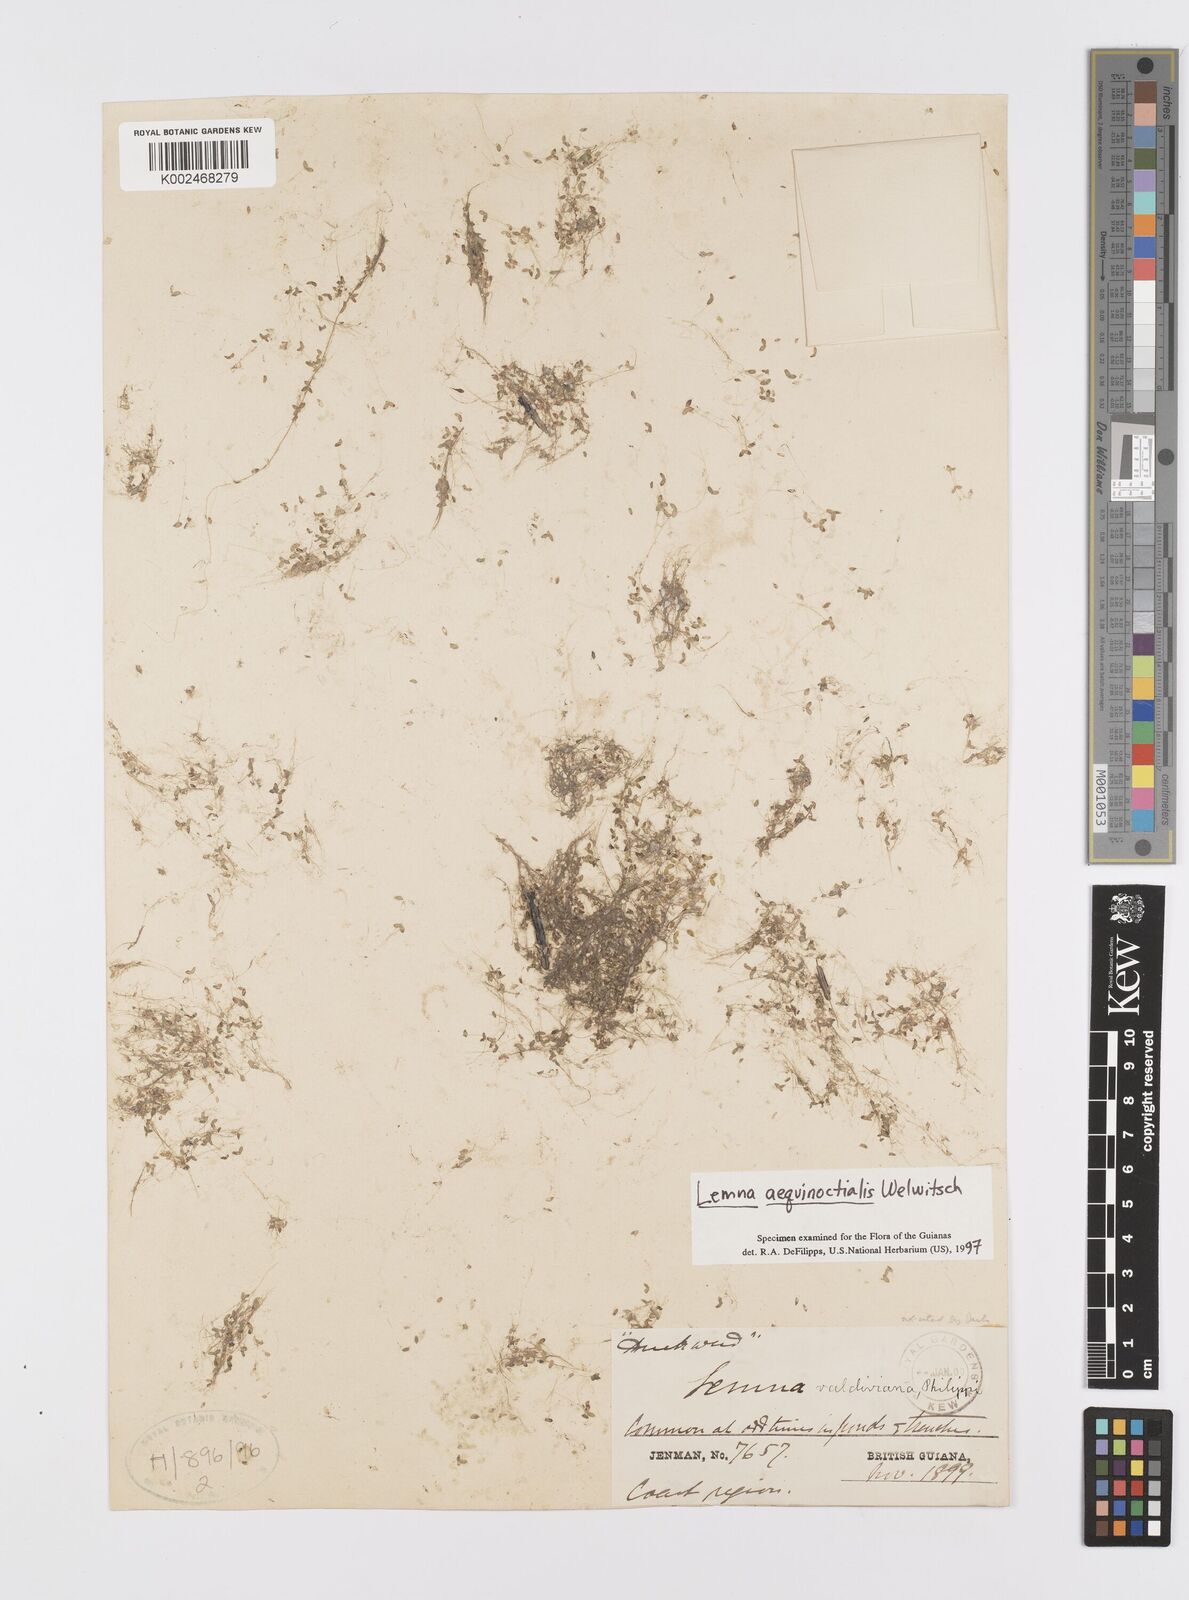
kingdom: Plantae
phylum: Tracheophyta
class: Liliopsida
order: Alismatales
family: Araceae
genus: Lemna
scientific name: Lemna aequinoctialis
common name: Duckweed
